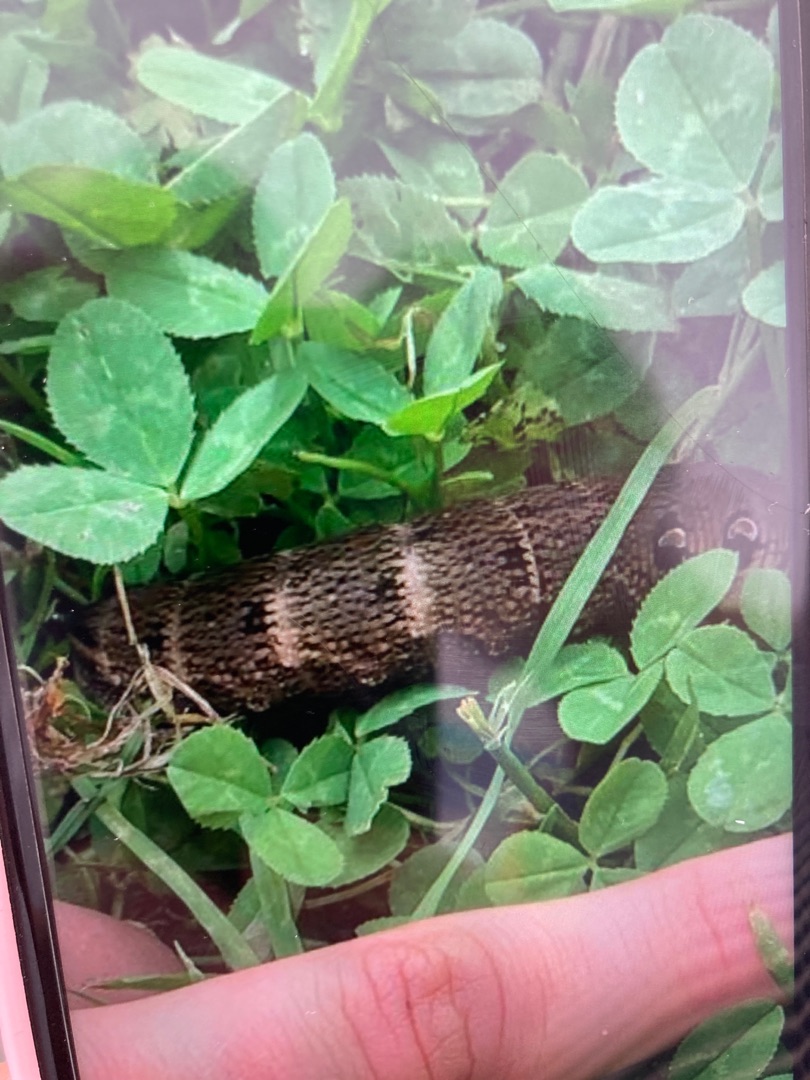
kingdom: Animalia
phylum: Arthropoda
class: Insecta
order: Lepidoptera
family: Sphingidae
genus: Deilephila
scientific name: Deilephila elpenor
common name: Dueurtsværmer
